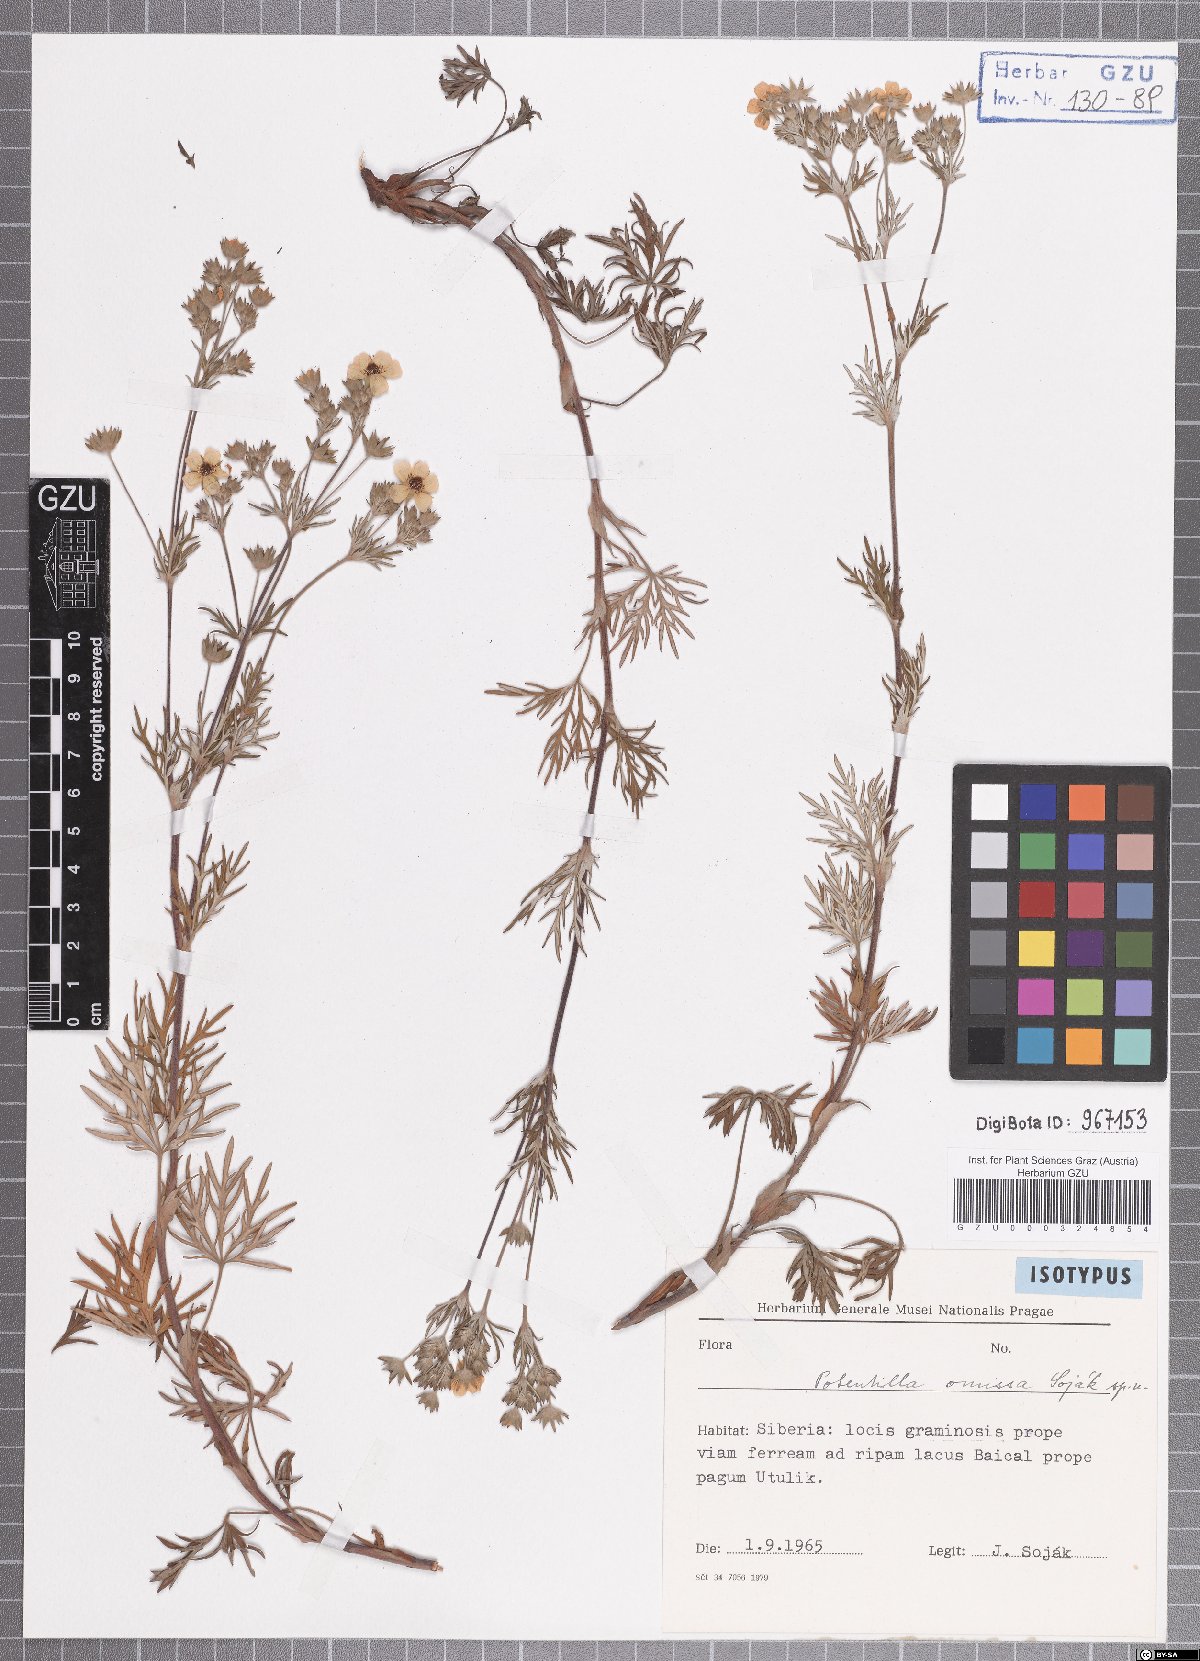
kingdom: Plantae
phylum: Tracheophyta
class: Magnoliopsida
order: Rosales
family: Rosaceae
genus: Potentilla
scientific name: Potentilla omissa
